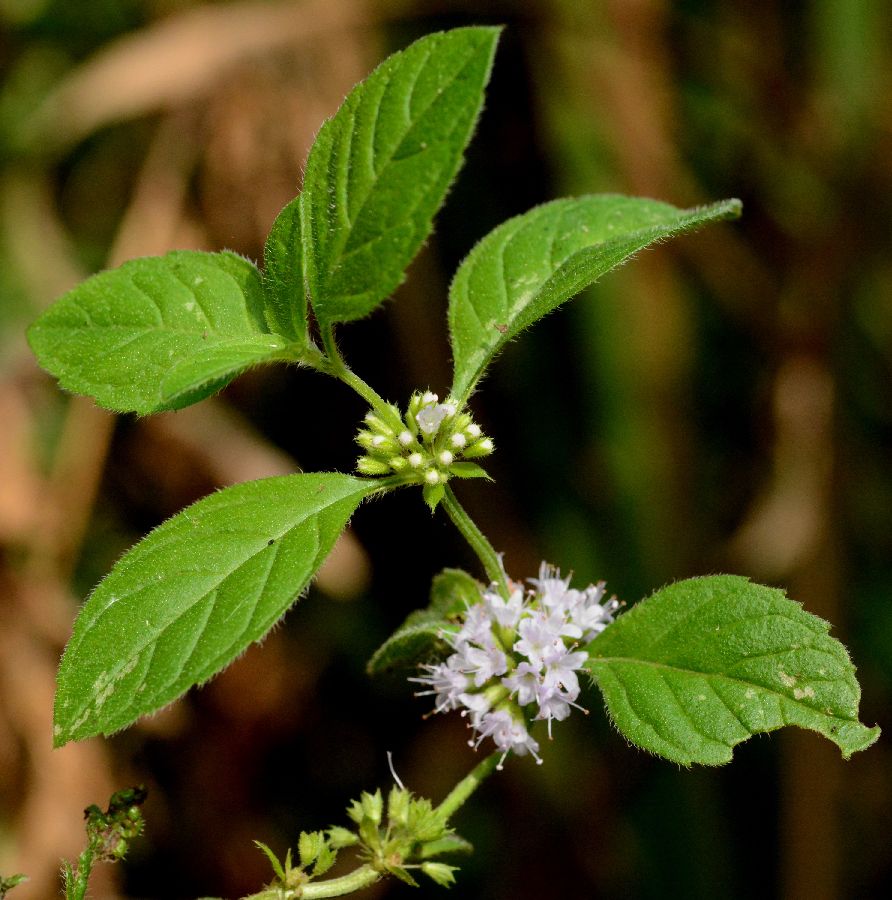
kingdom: Plantae
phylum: Tracheophyta
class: Magnoliopsida
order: Lamiales
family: Lamiaceae
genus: Mentha
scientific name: Mentha arvensis
